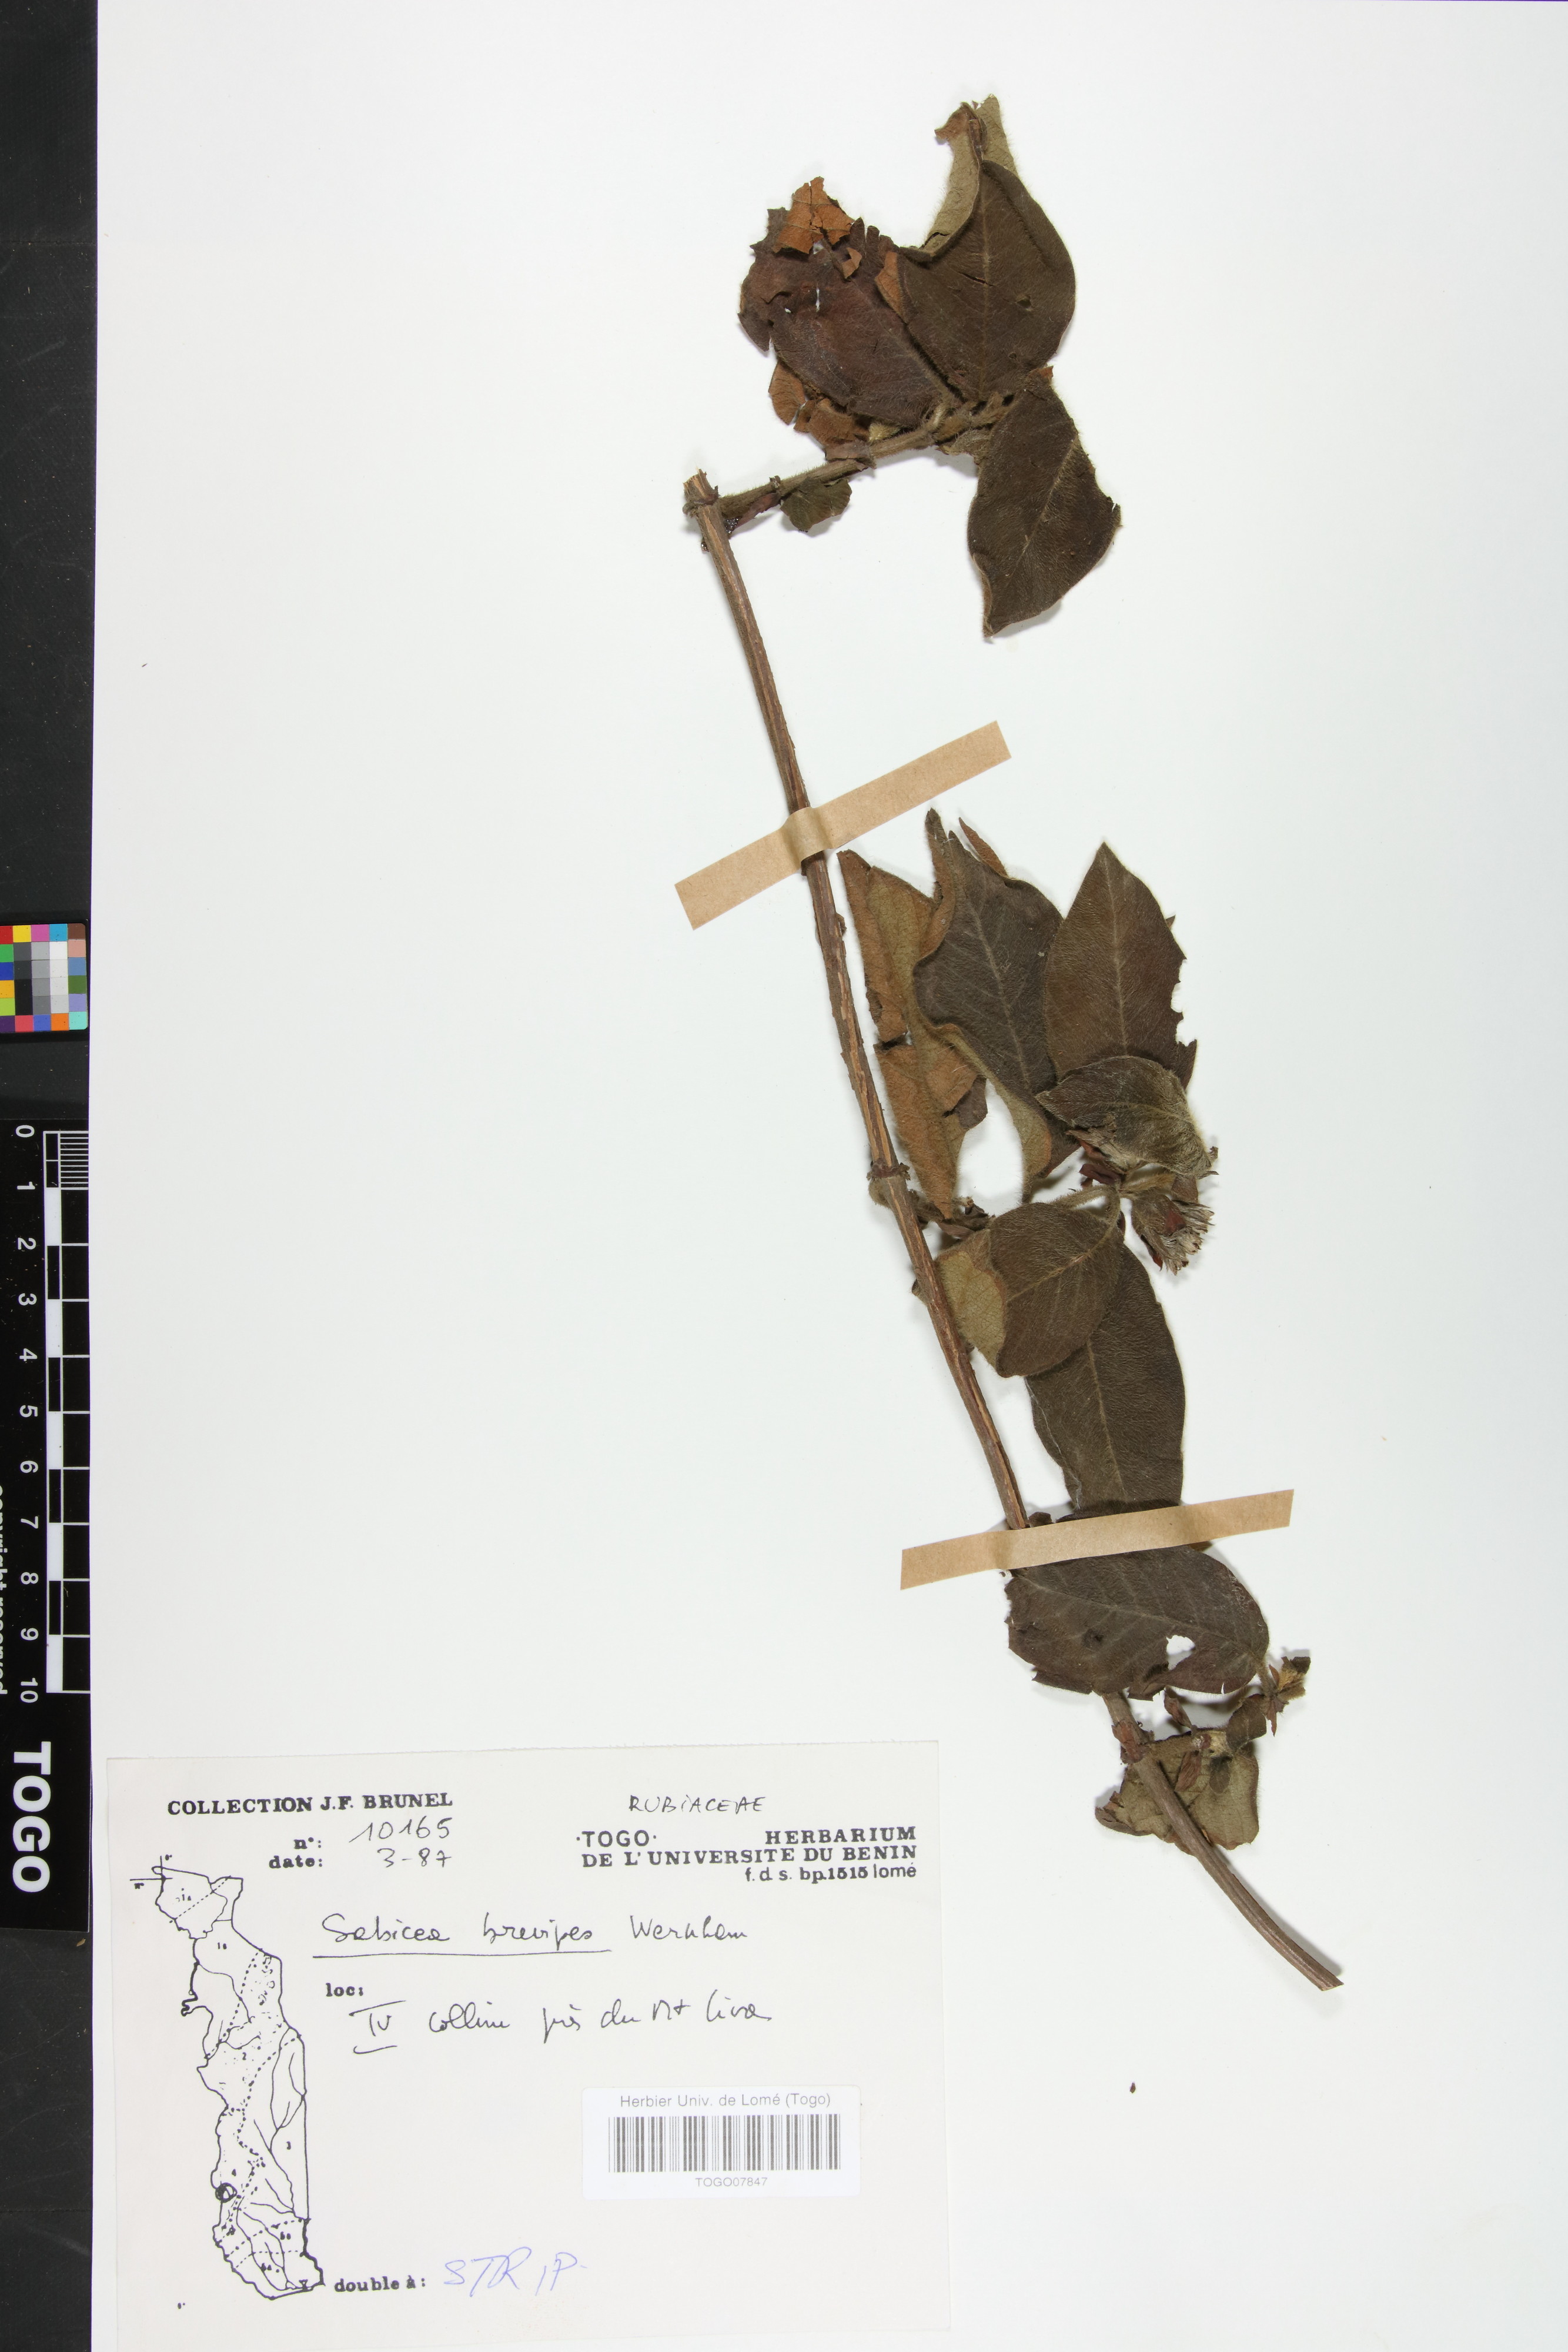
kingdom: Plantae
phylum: Tracheophyta
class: Magnoliopsida
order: Gentianales
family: Rubiaceae
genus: Sabicea
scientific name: Sabicea brevipes
